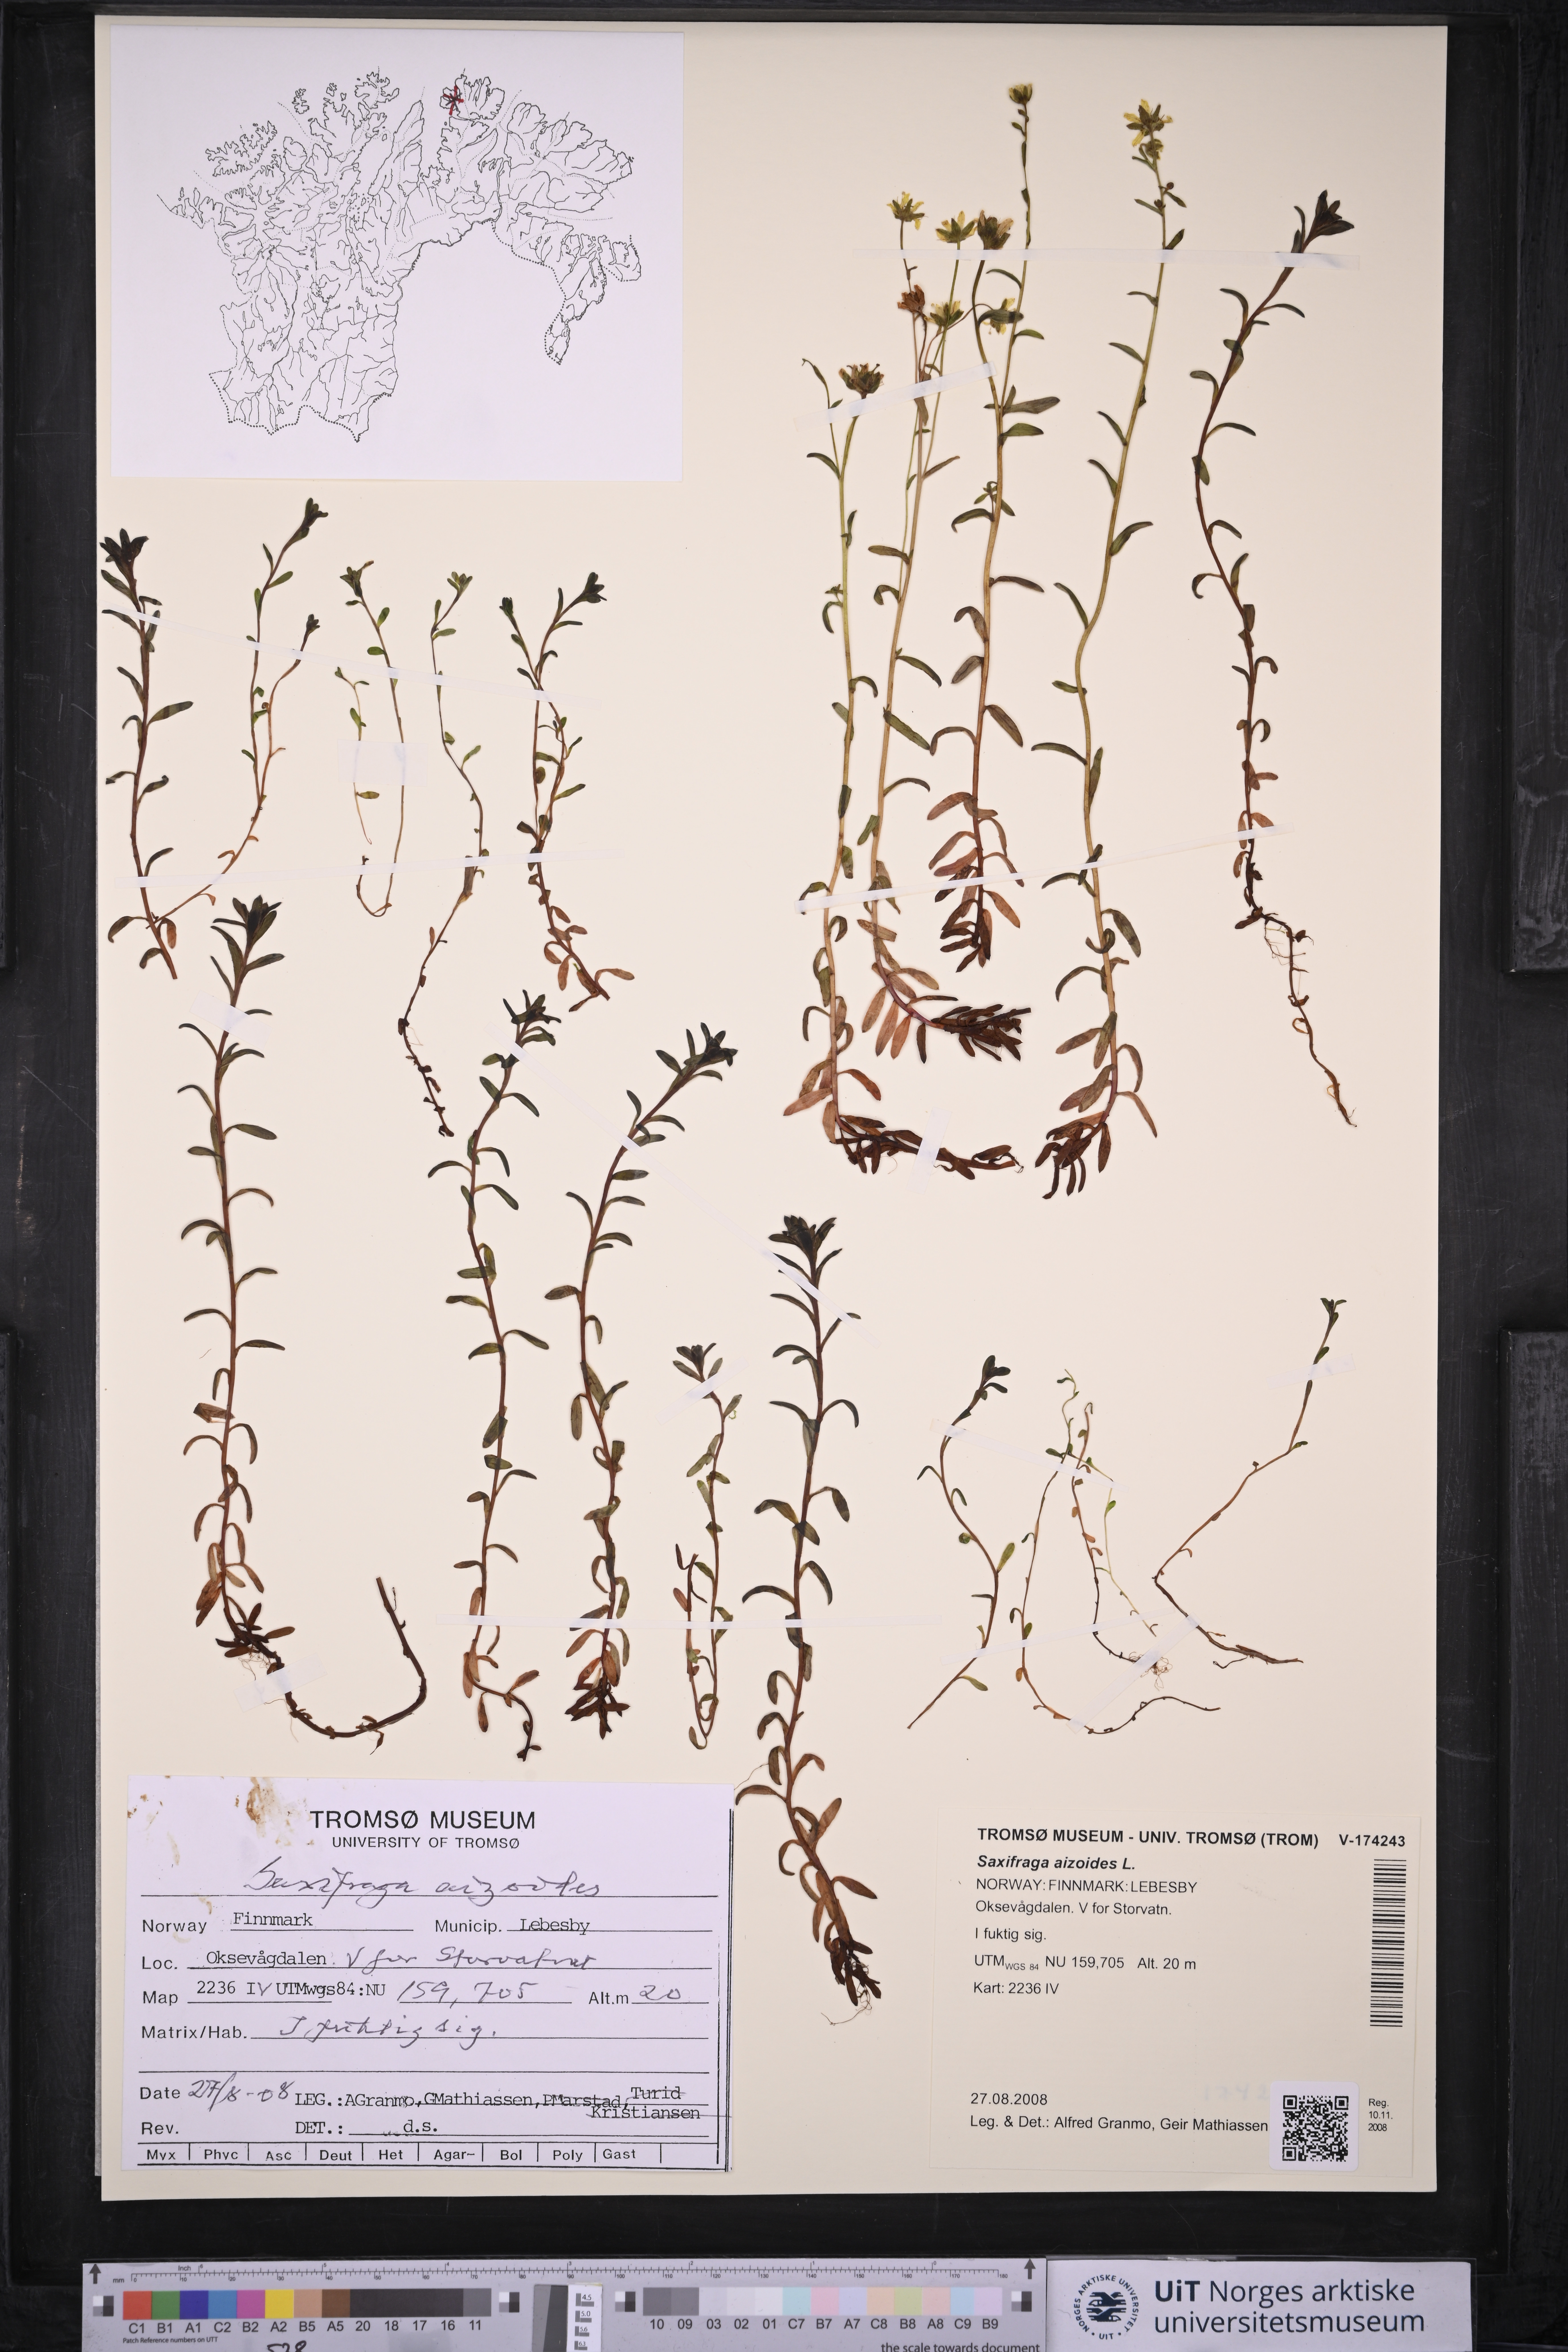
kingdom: Plantae
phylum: Tracheophyta
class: Magnoliopsida
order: Saxifragales
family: Saxifragaceae
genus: Saxifraga
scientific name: Saxifraga aizoides
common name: Yellow mountain saxifrage
